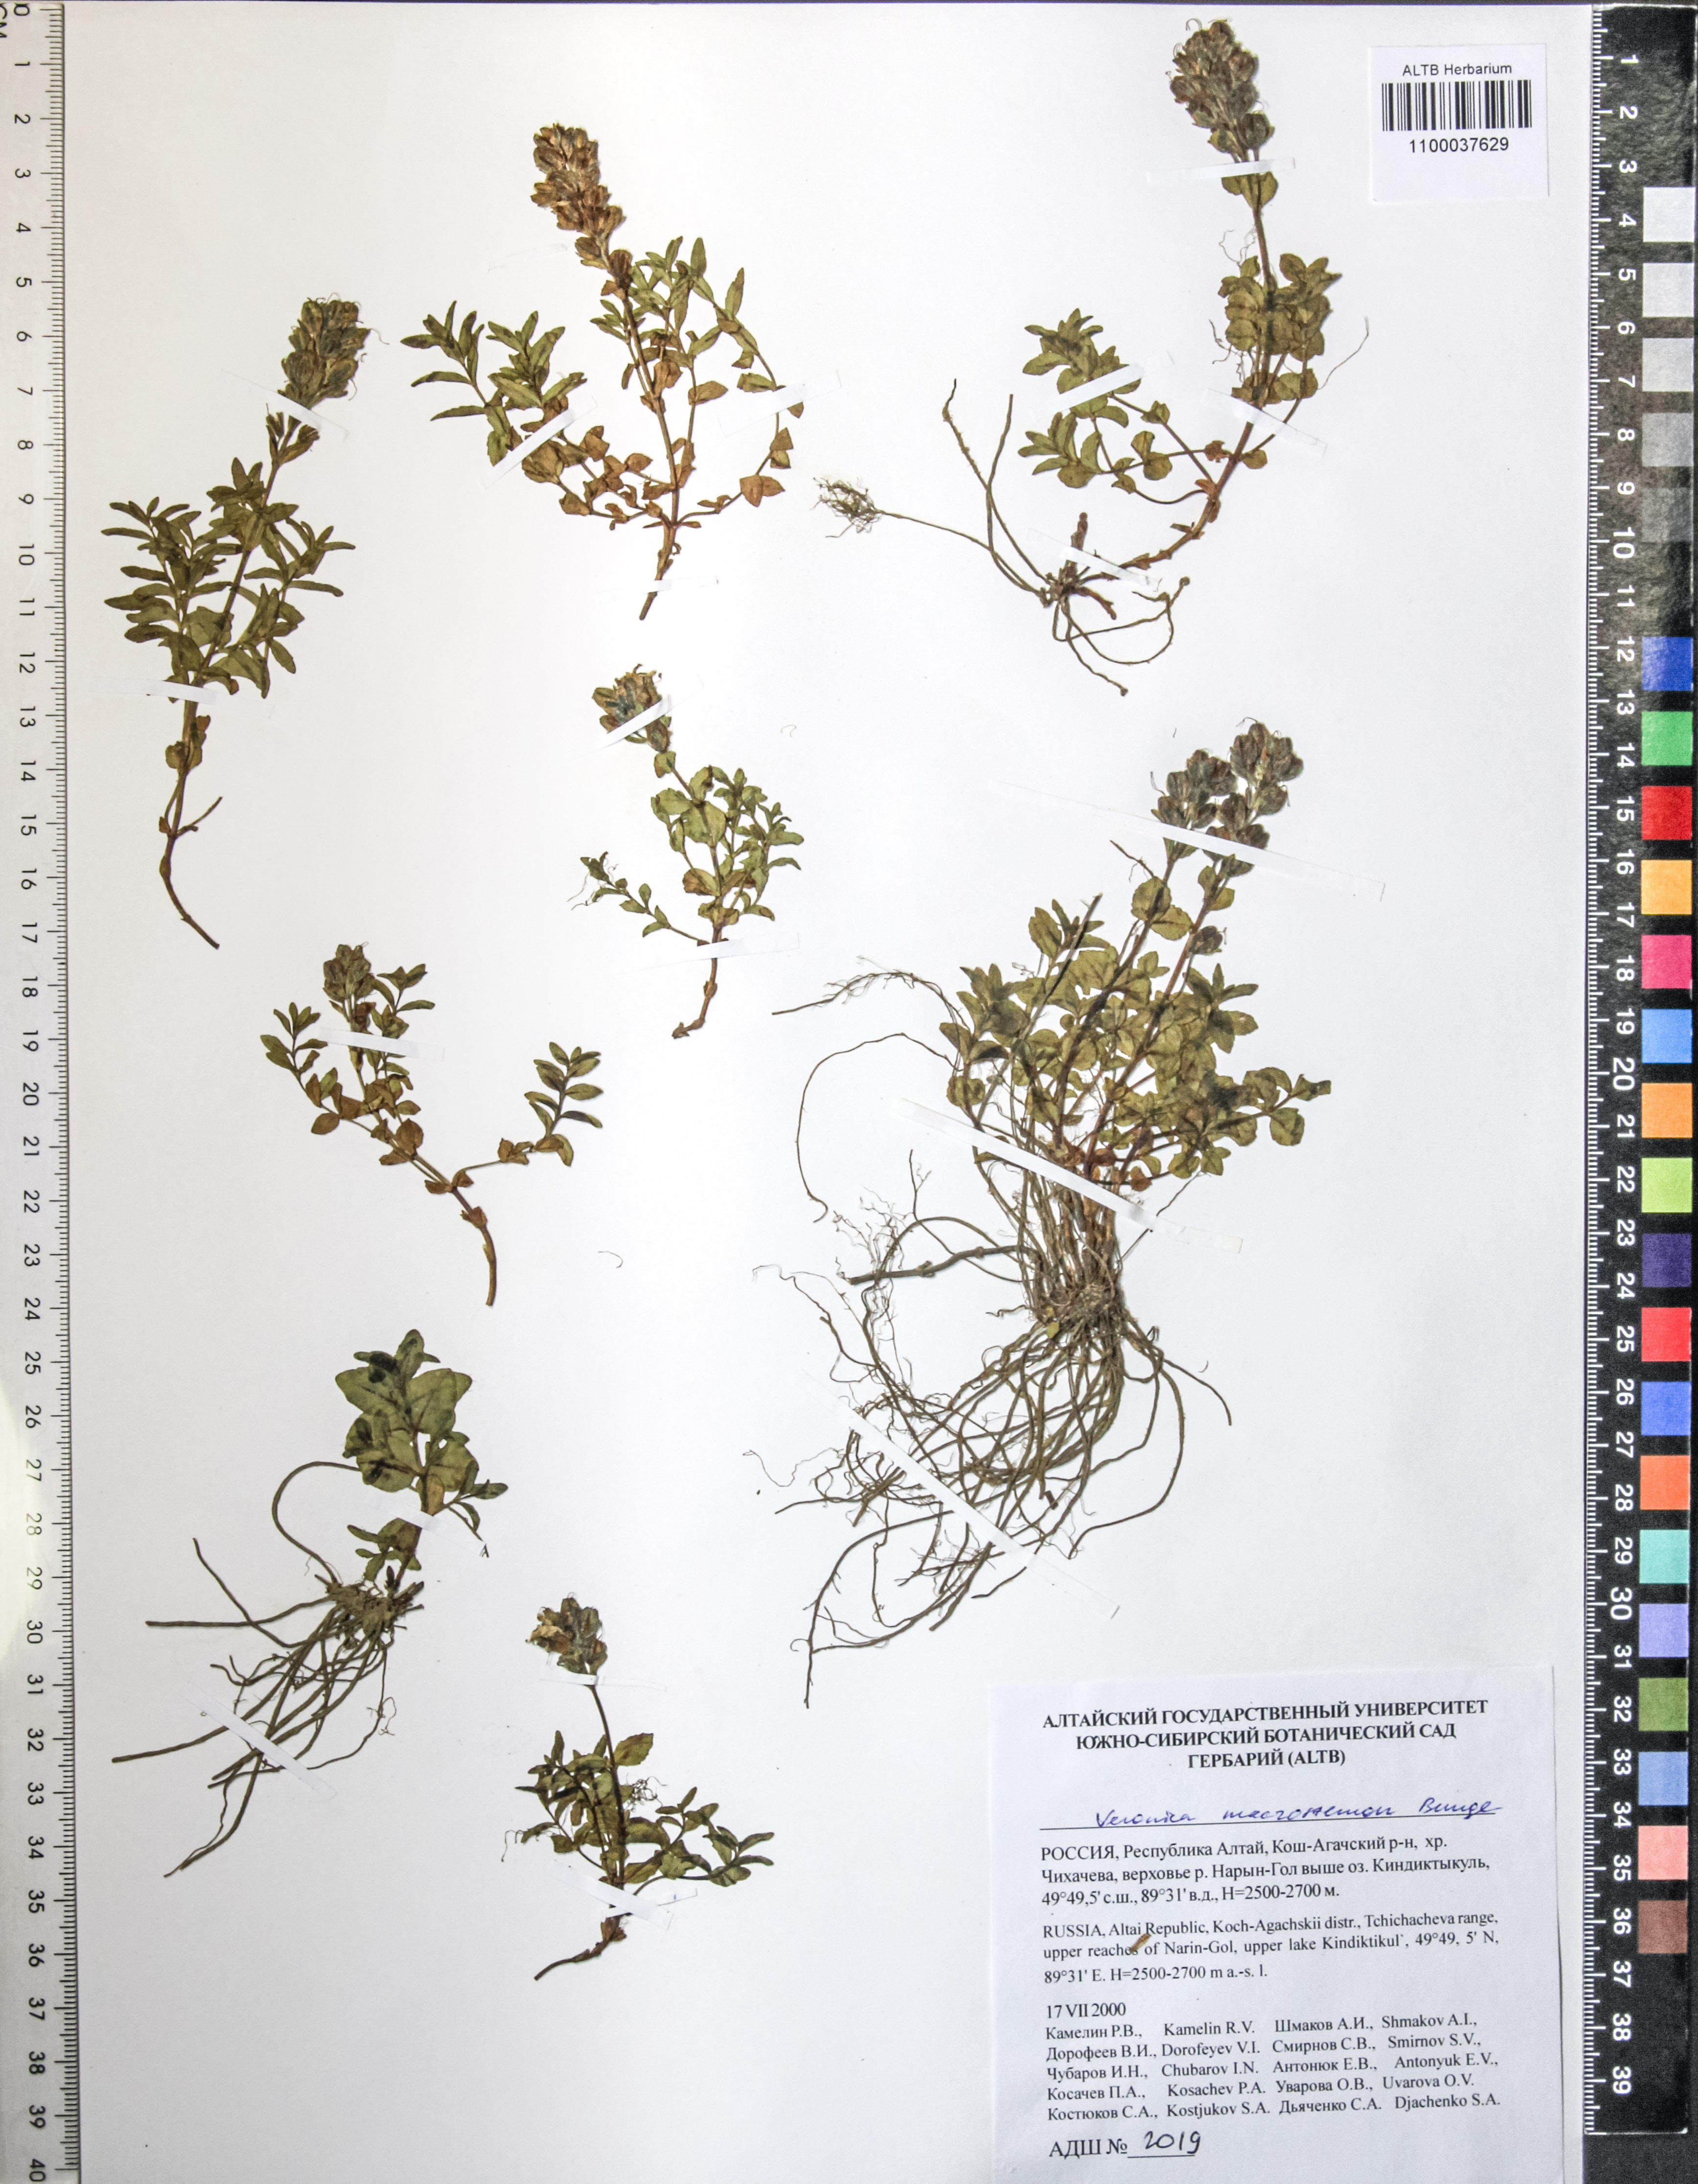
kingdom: Plantae
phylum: Tracheophyta
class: Magnoliopsida
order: Lamiales
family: Plantaginaceae
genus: Veronica
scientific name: Veronica macrostemon
